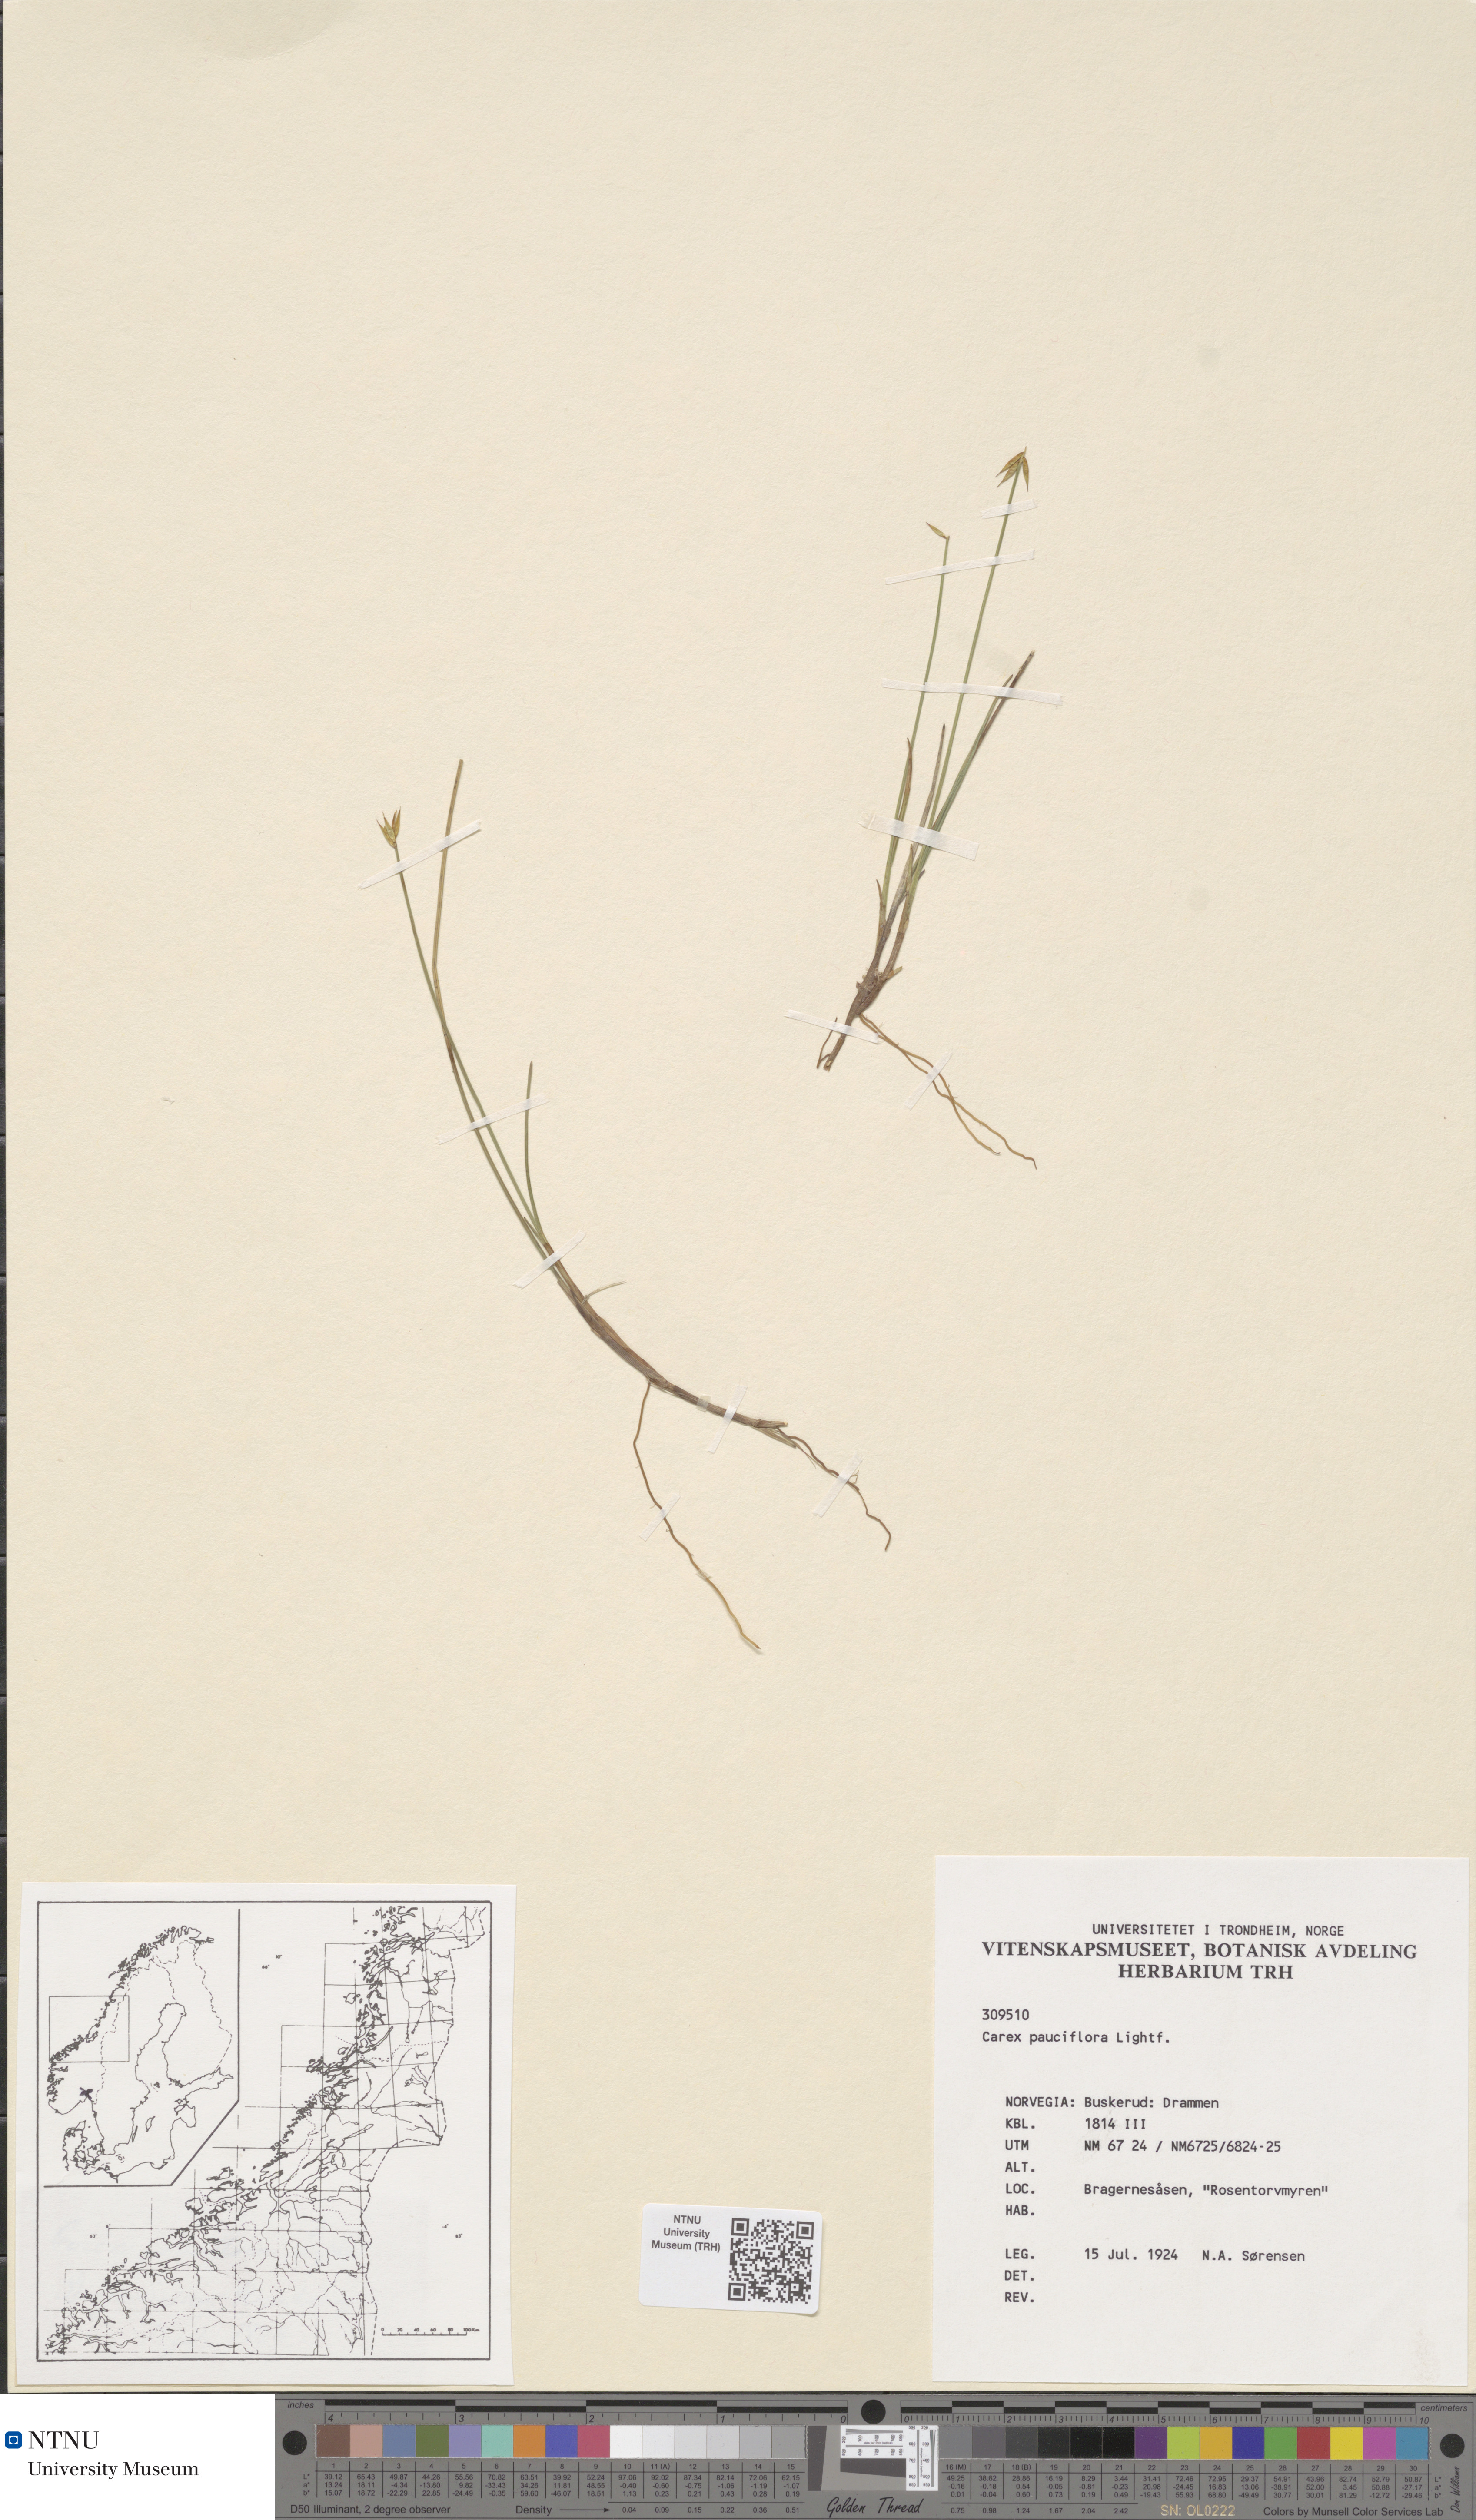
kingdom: Plantae
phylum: Tracheophyta
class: Liliopsida
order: Poales
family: Cyperaceae
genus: Carex
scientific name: Carex pauciflora
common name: Few-flowered sedge
